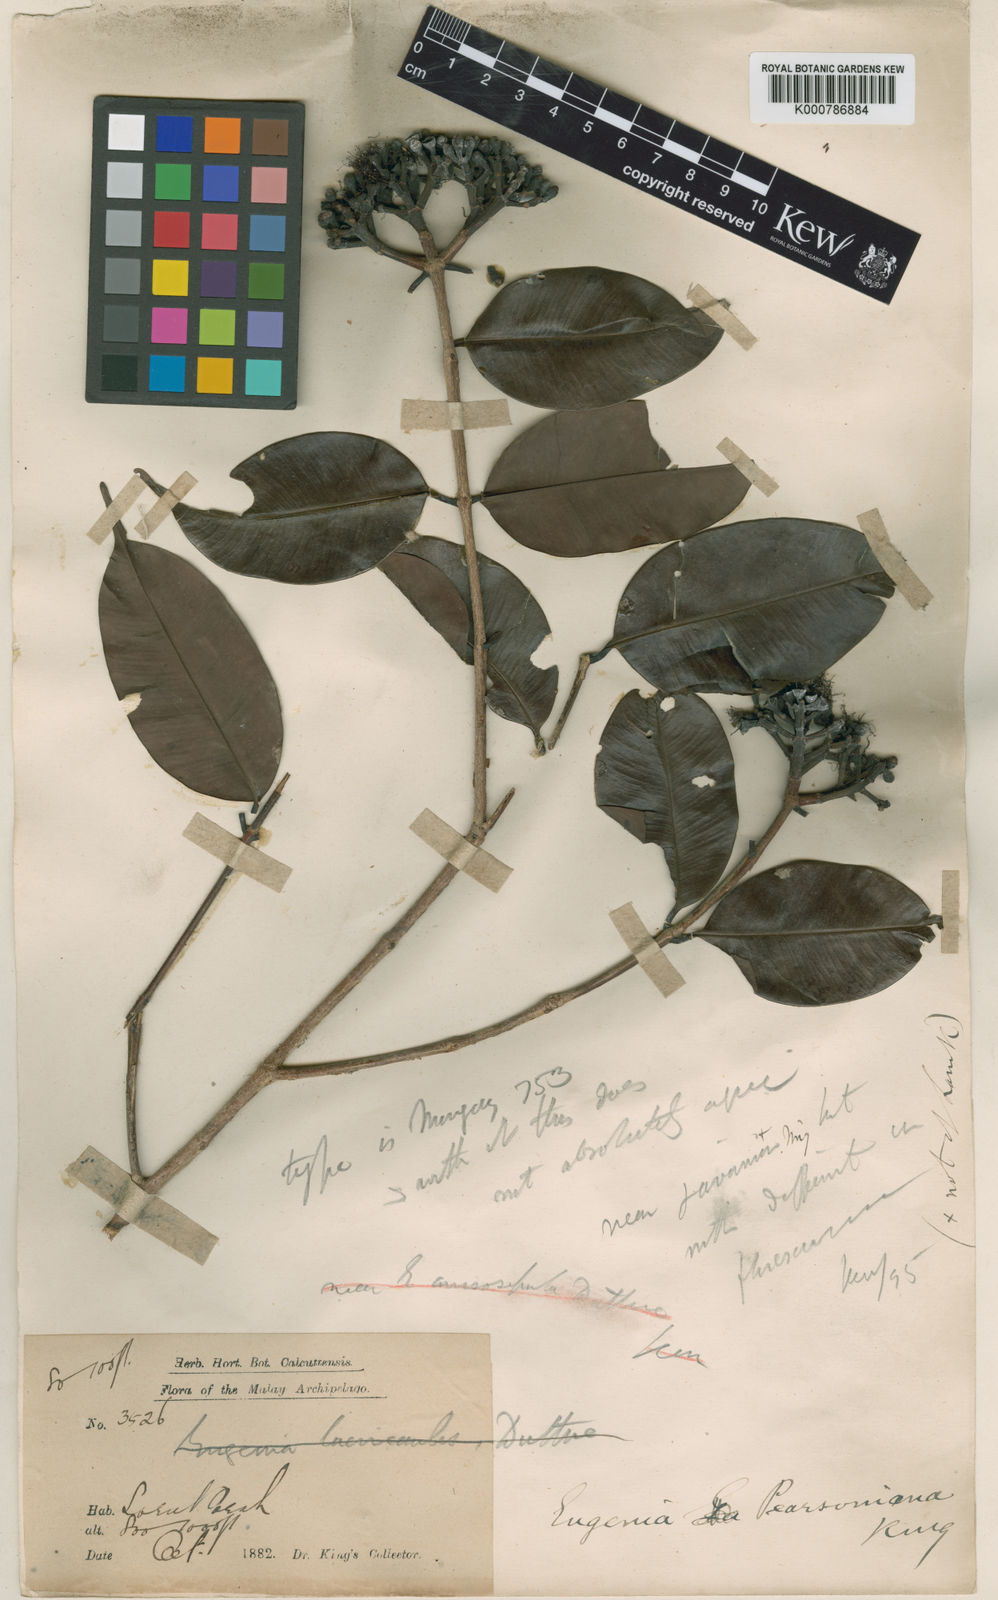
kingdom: Plantae
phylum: Tracheophyta
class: Magnoliopsida
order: Myrtales
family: Myrtaceae
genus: Syzygium
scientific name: Syzygium praineanum
